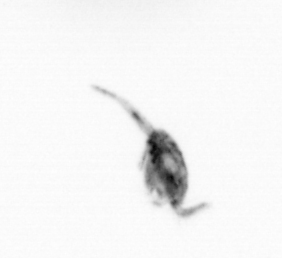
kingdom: Animalia
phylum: Arthropoda
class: Copepoda
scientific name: Copepoda
